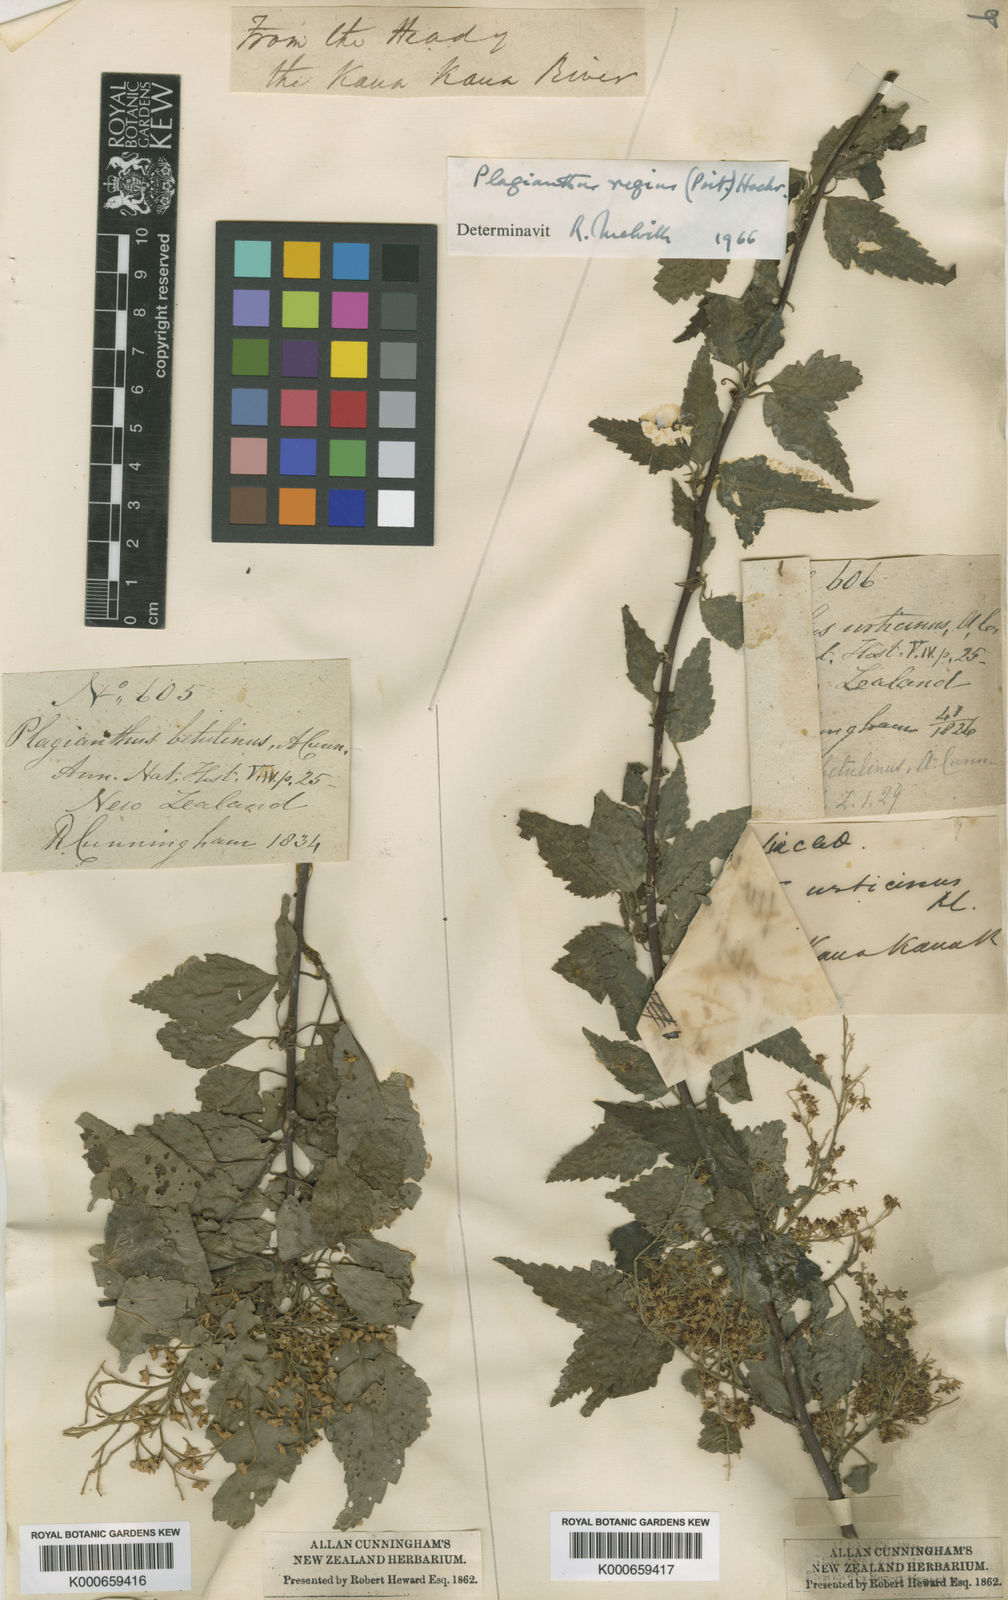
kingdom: Plantae
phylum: Tracheophyta
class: Magnoliopsida
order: Malvales
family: Malvaceae
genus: Plagianthus
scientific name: Plagianthus regius
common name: Manatu
